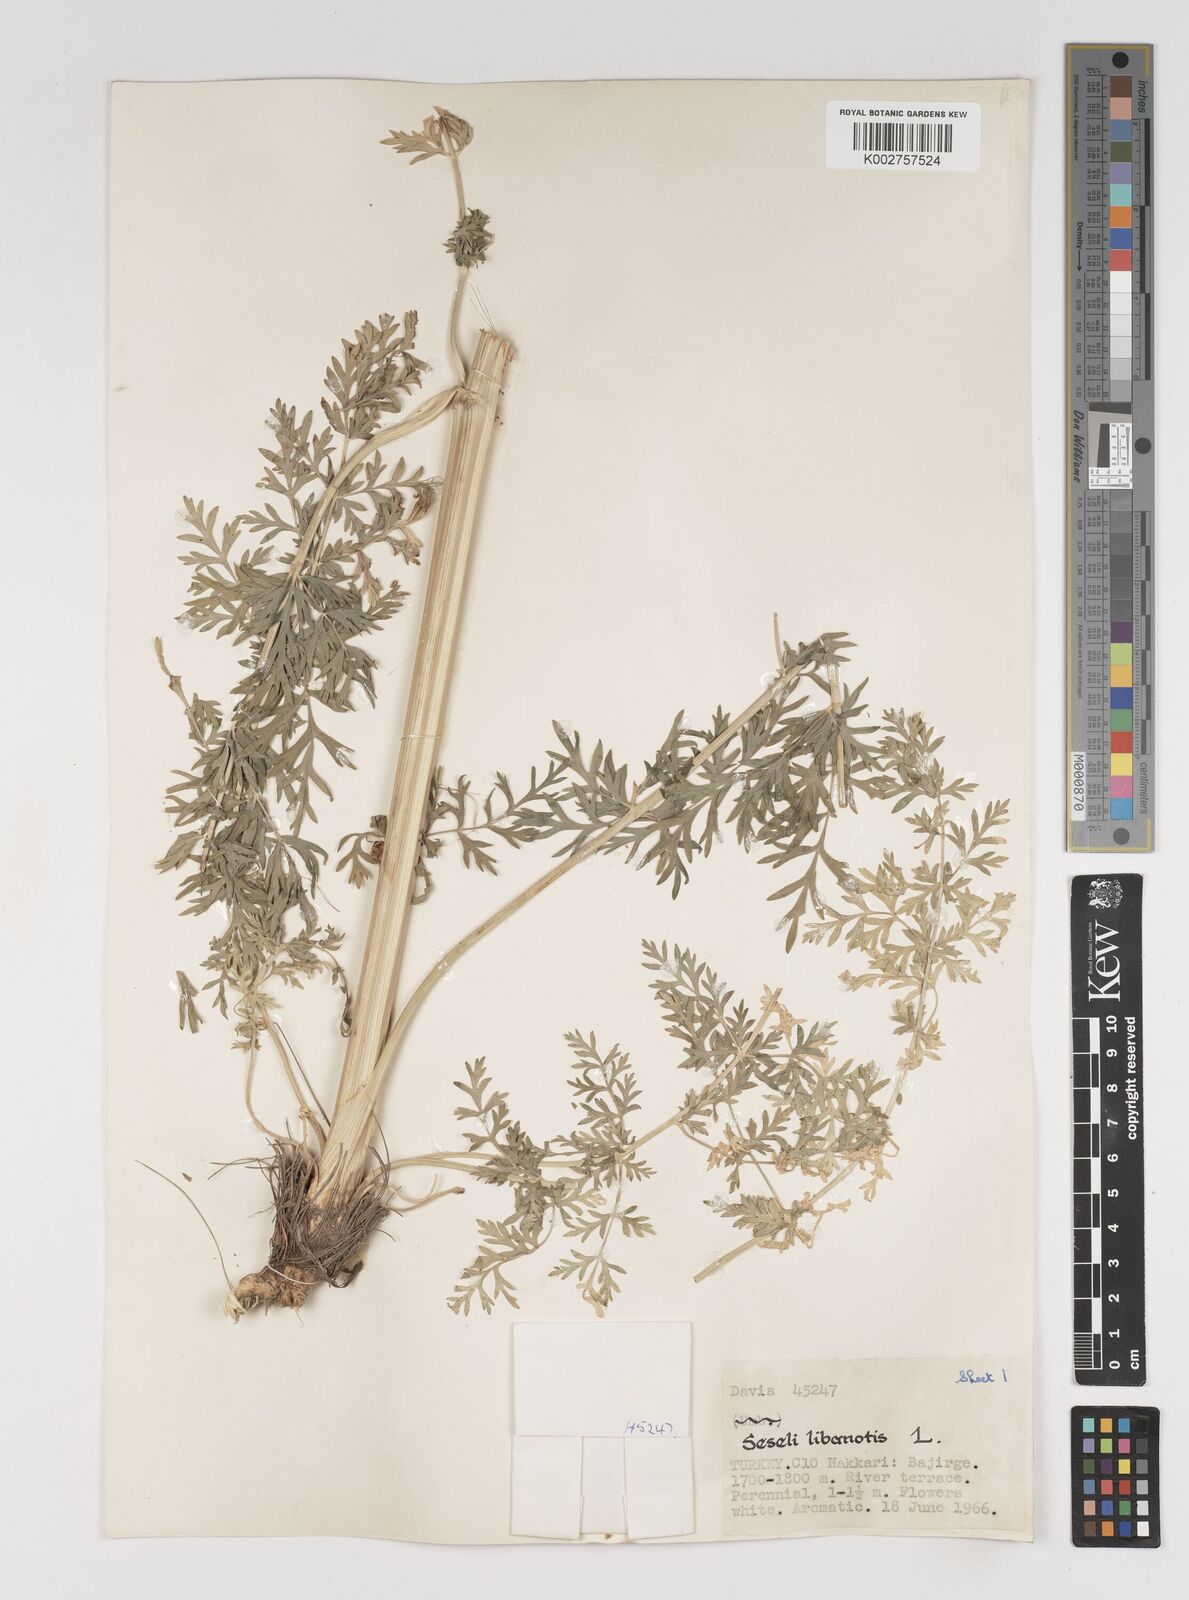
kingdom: Plantae
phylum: Tracheophyta
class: Magnoliopsida
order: Apiales
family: Apiaceae
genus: Seseli
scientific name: Seseli libanotis
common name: Mooncarrot
